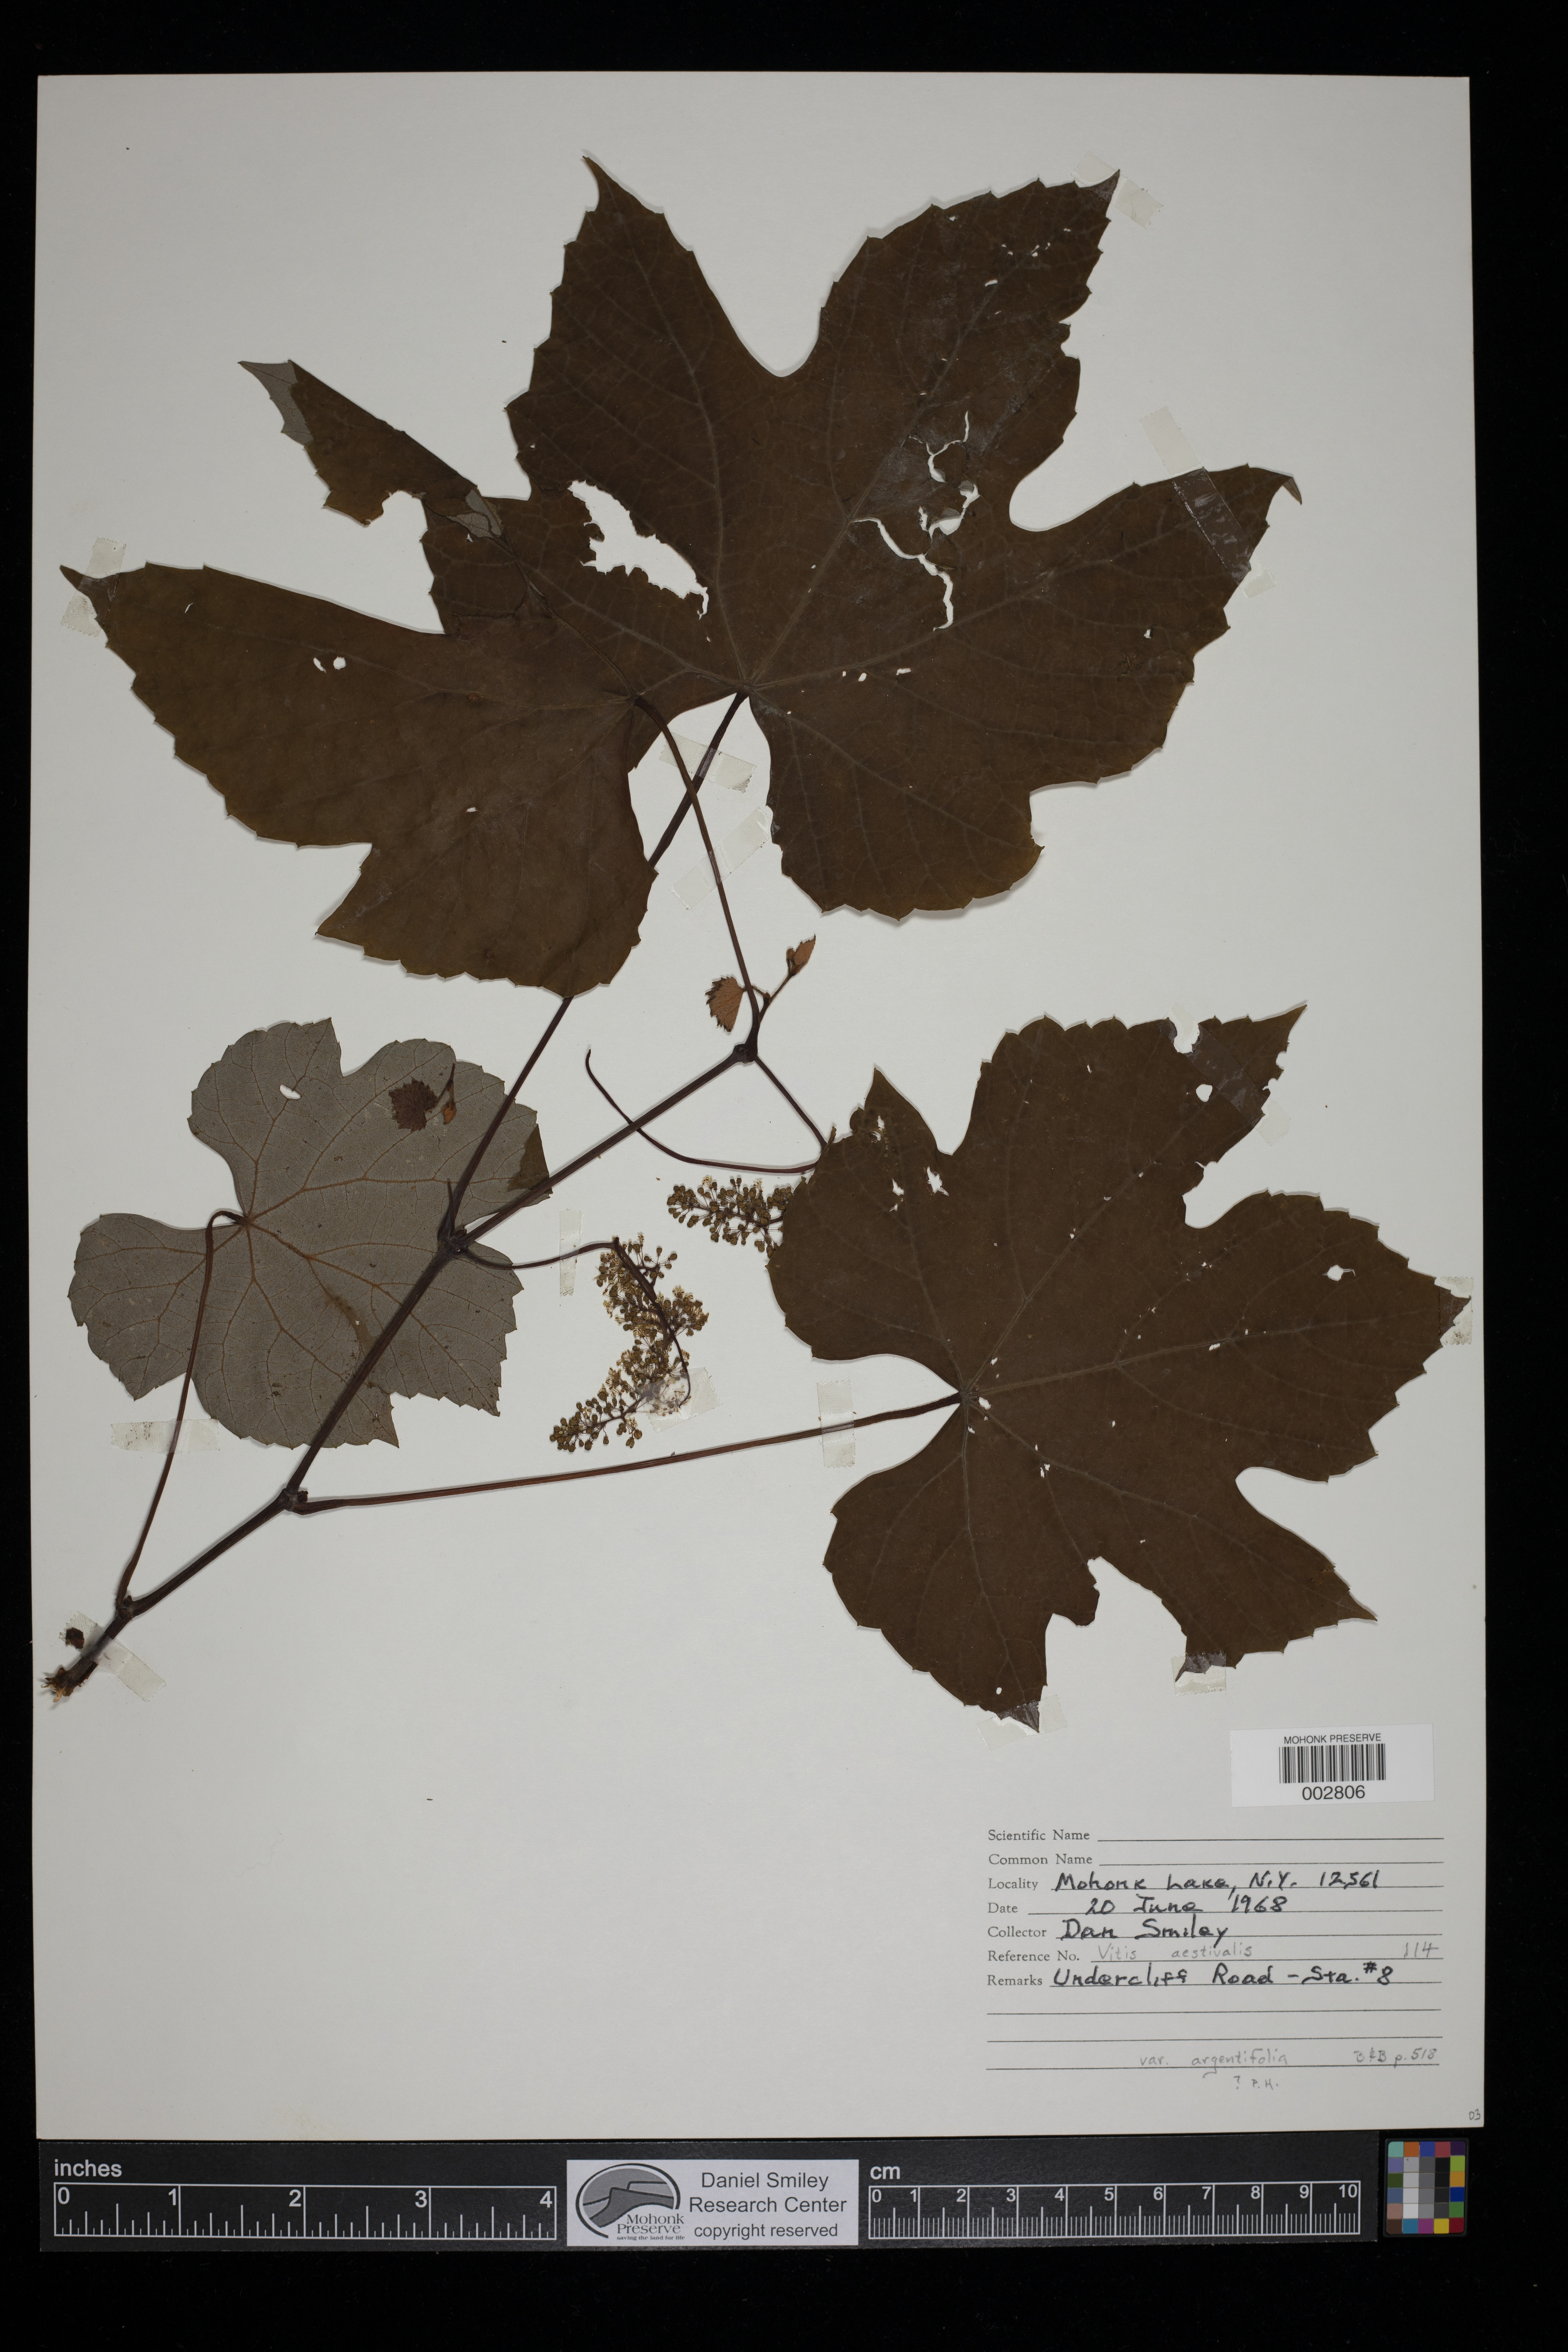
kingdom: Plantae
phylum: Tracheophyta
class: Magnoliopsida
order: Vitales
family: Vitaceae
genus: Vitis
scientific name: Vitis aestivalis
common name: Pigeon grape
